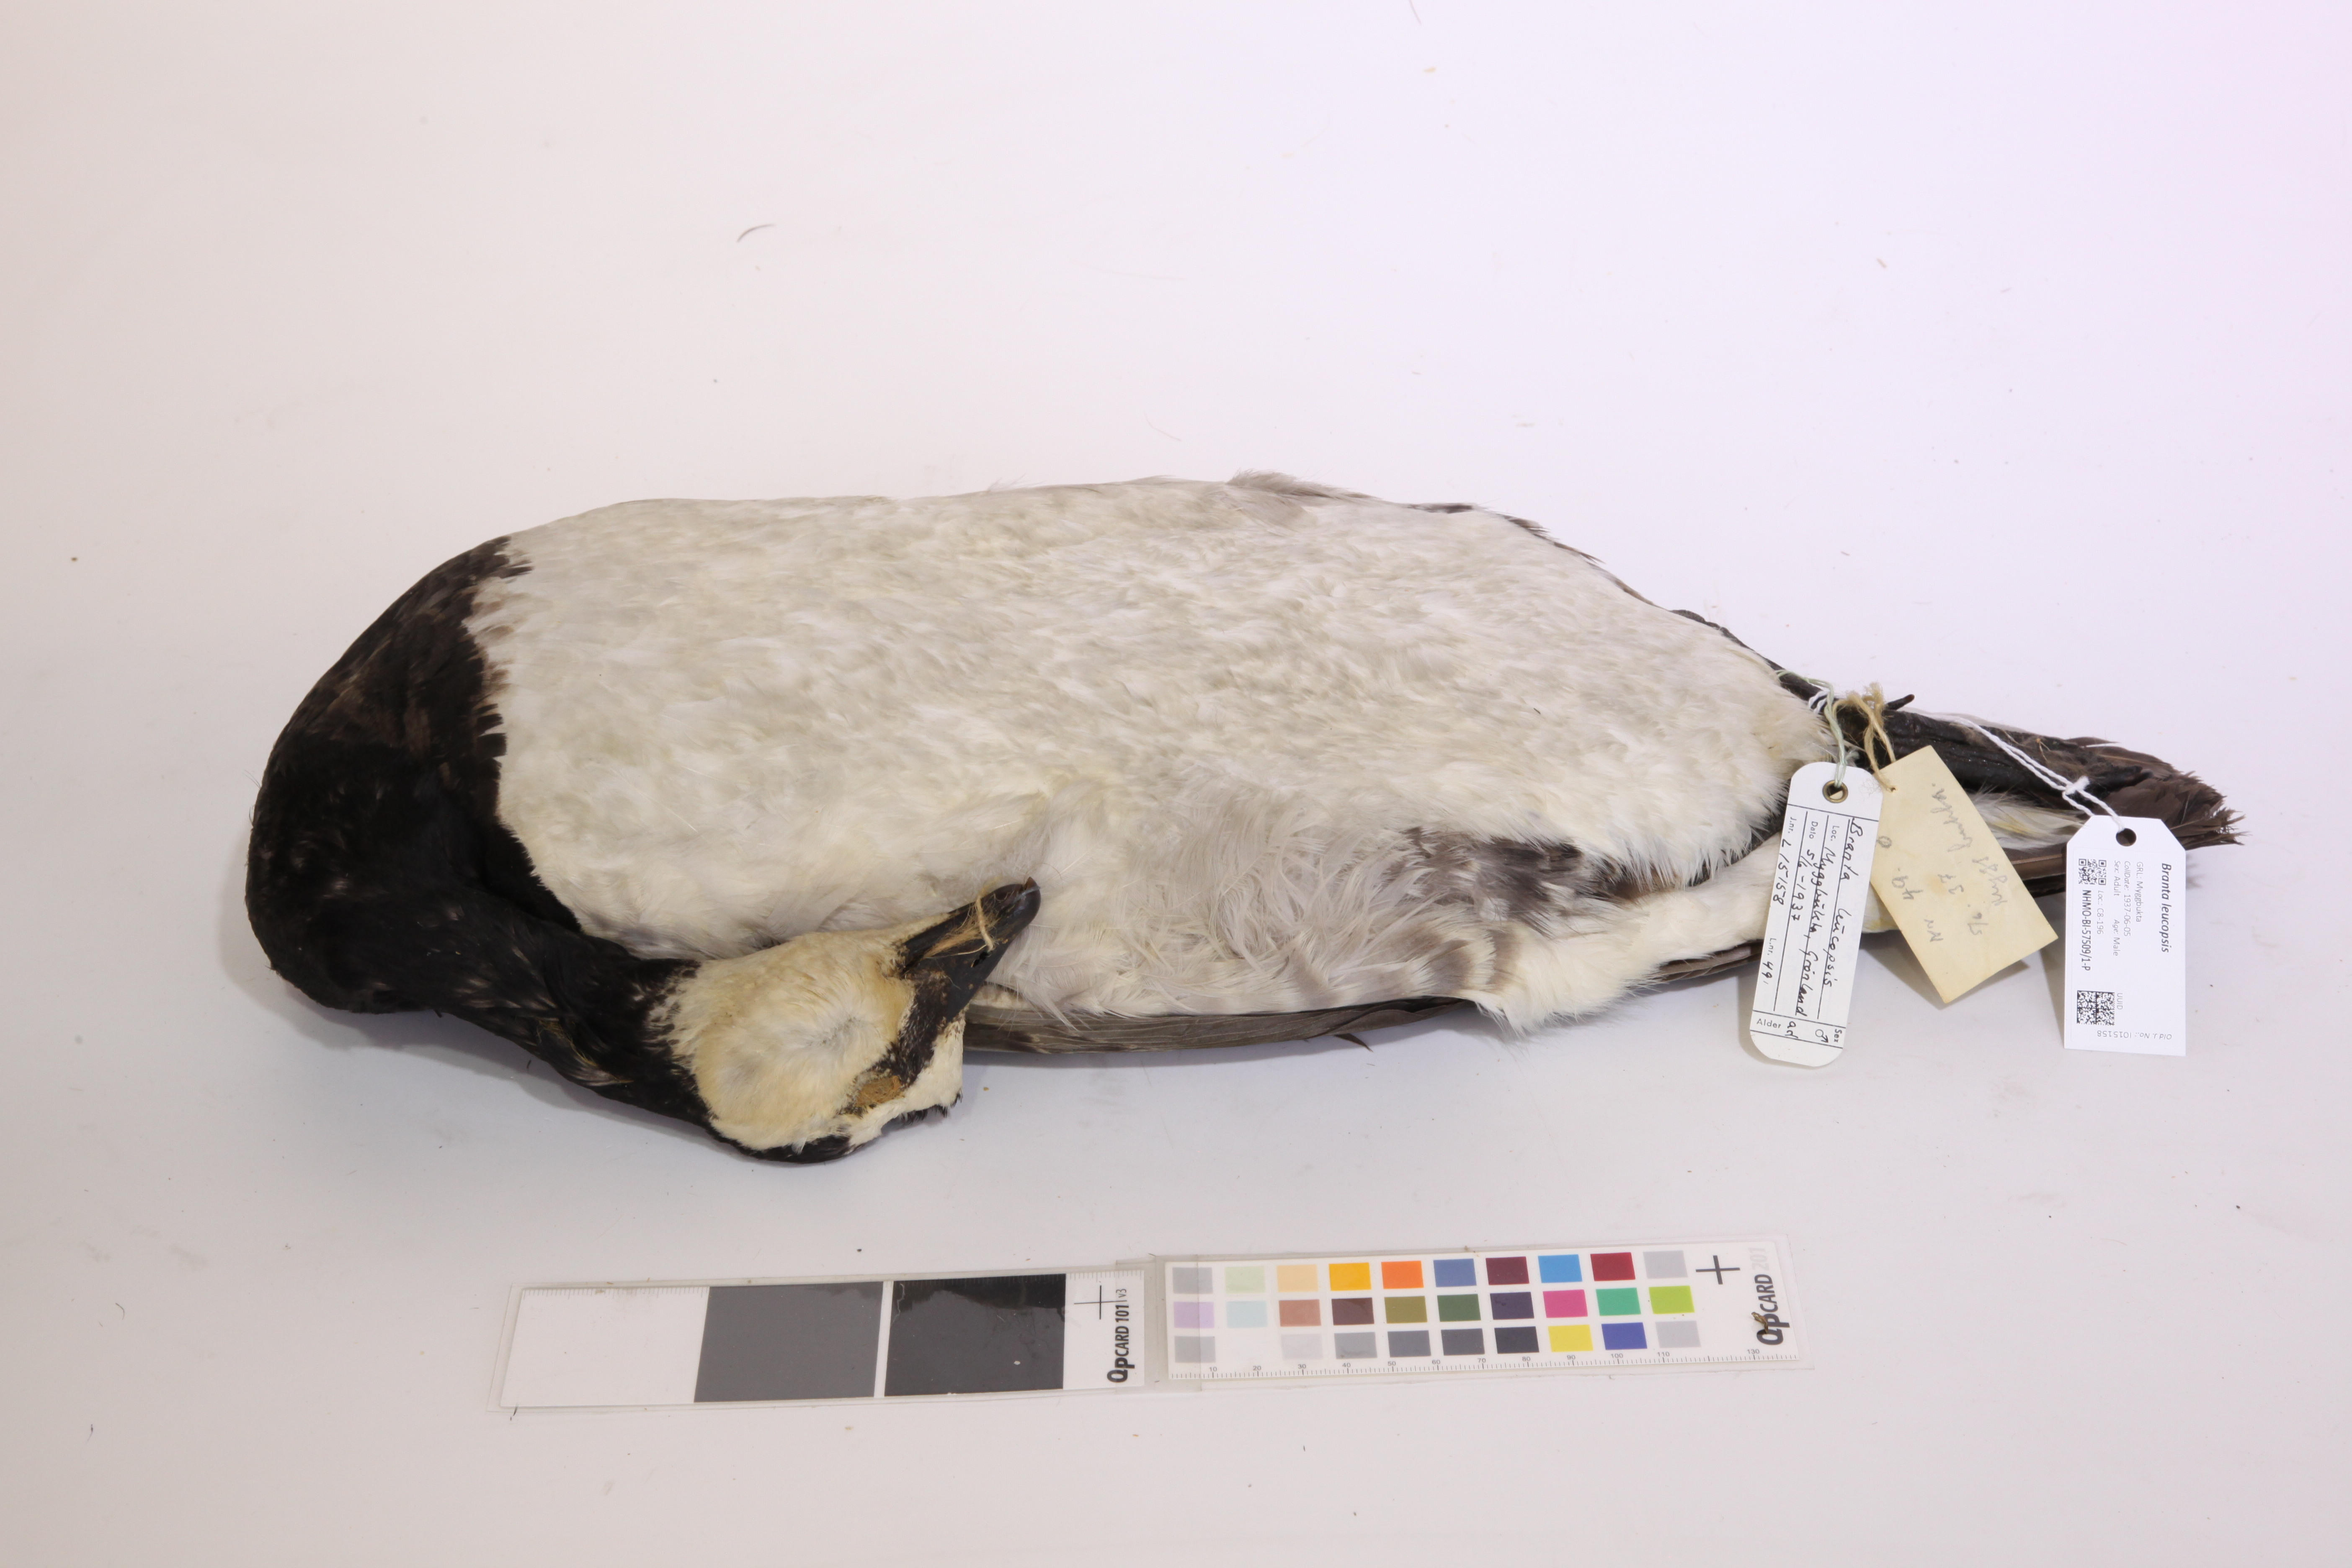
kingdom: Animalia
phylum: Chordata
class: Aves
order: Anseriformes
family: Anatidae
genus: Branta
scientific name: Branta leucopsis
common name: Barnacle goose
